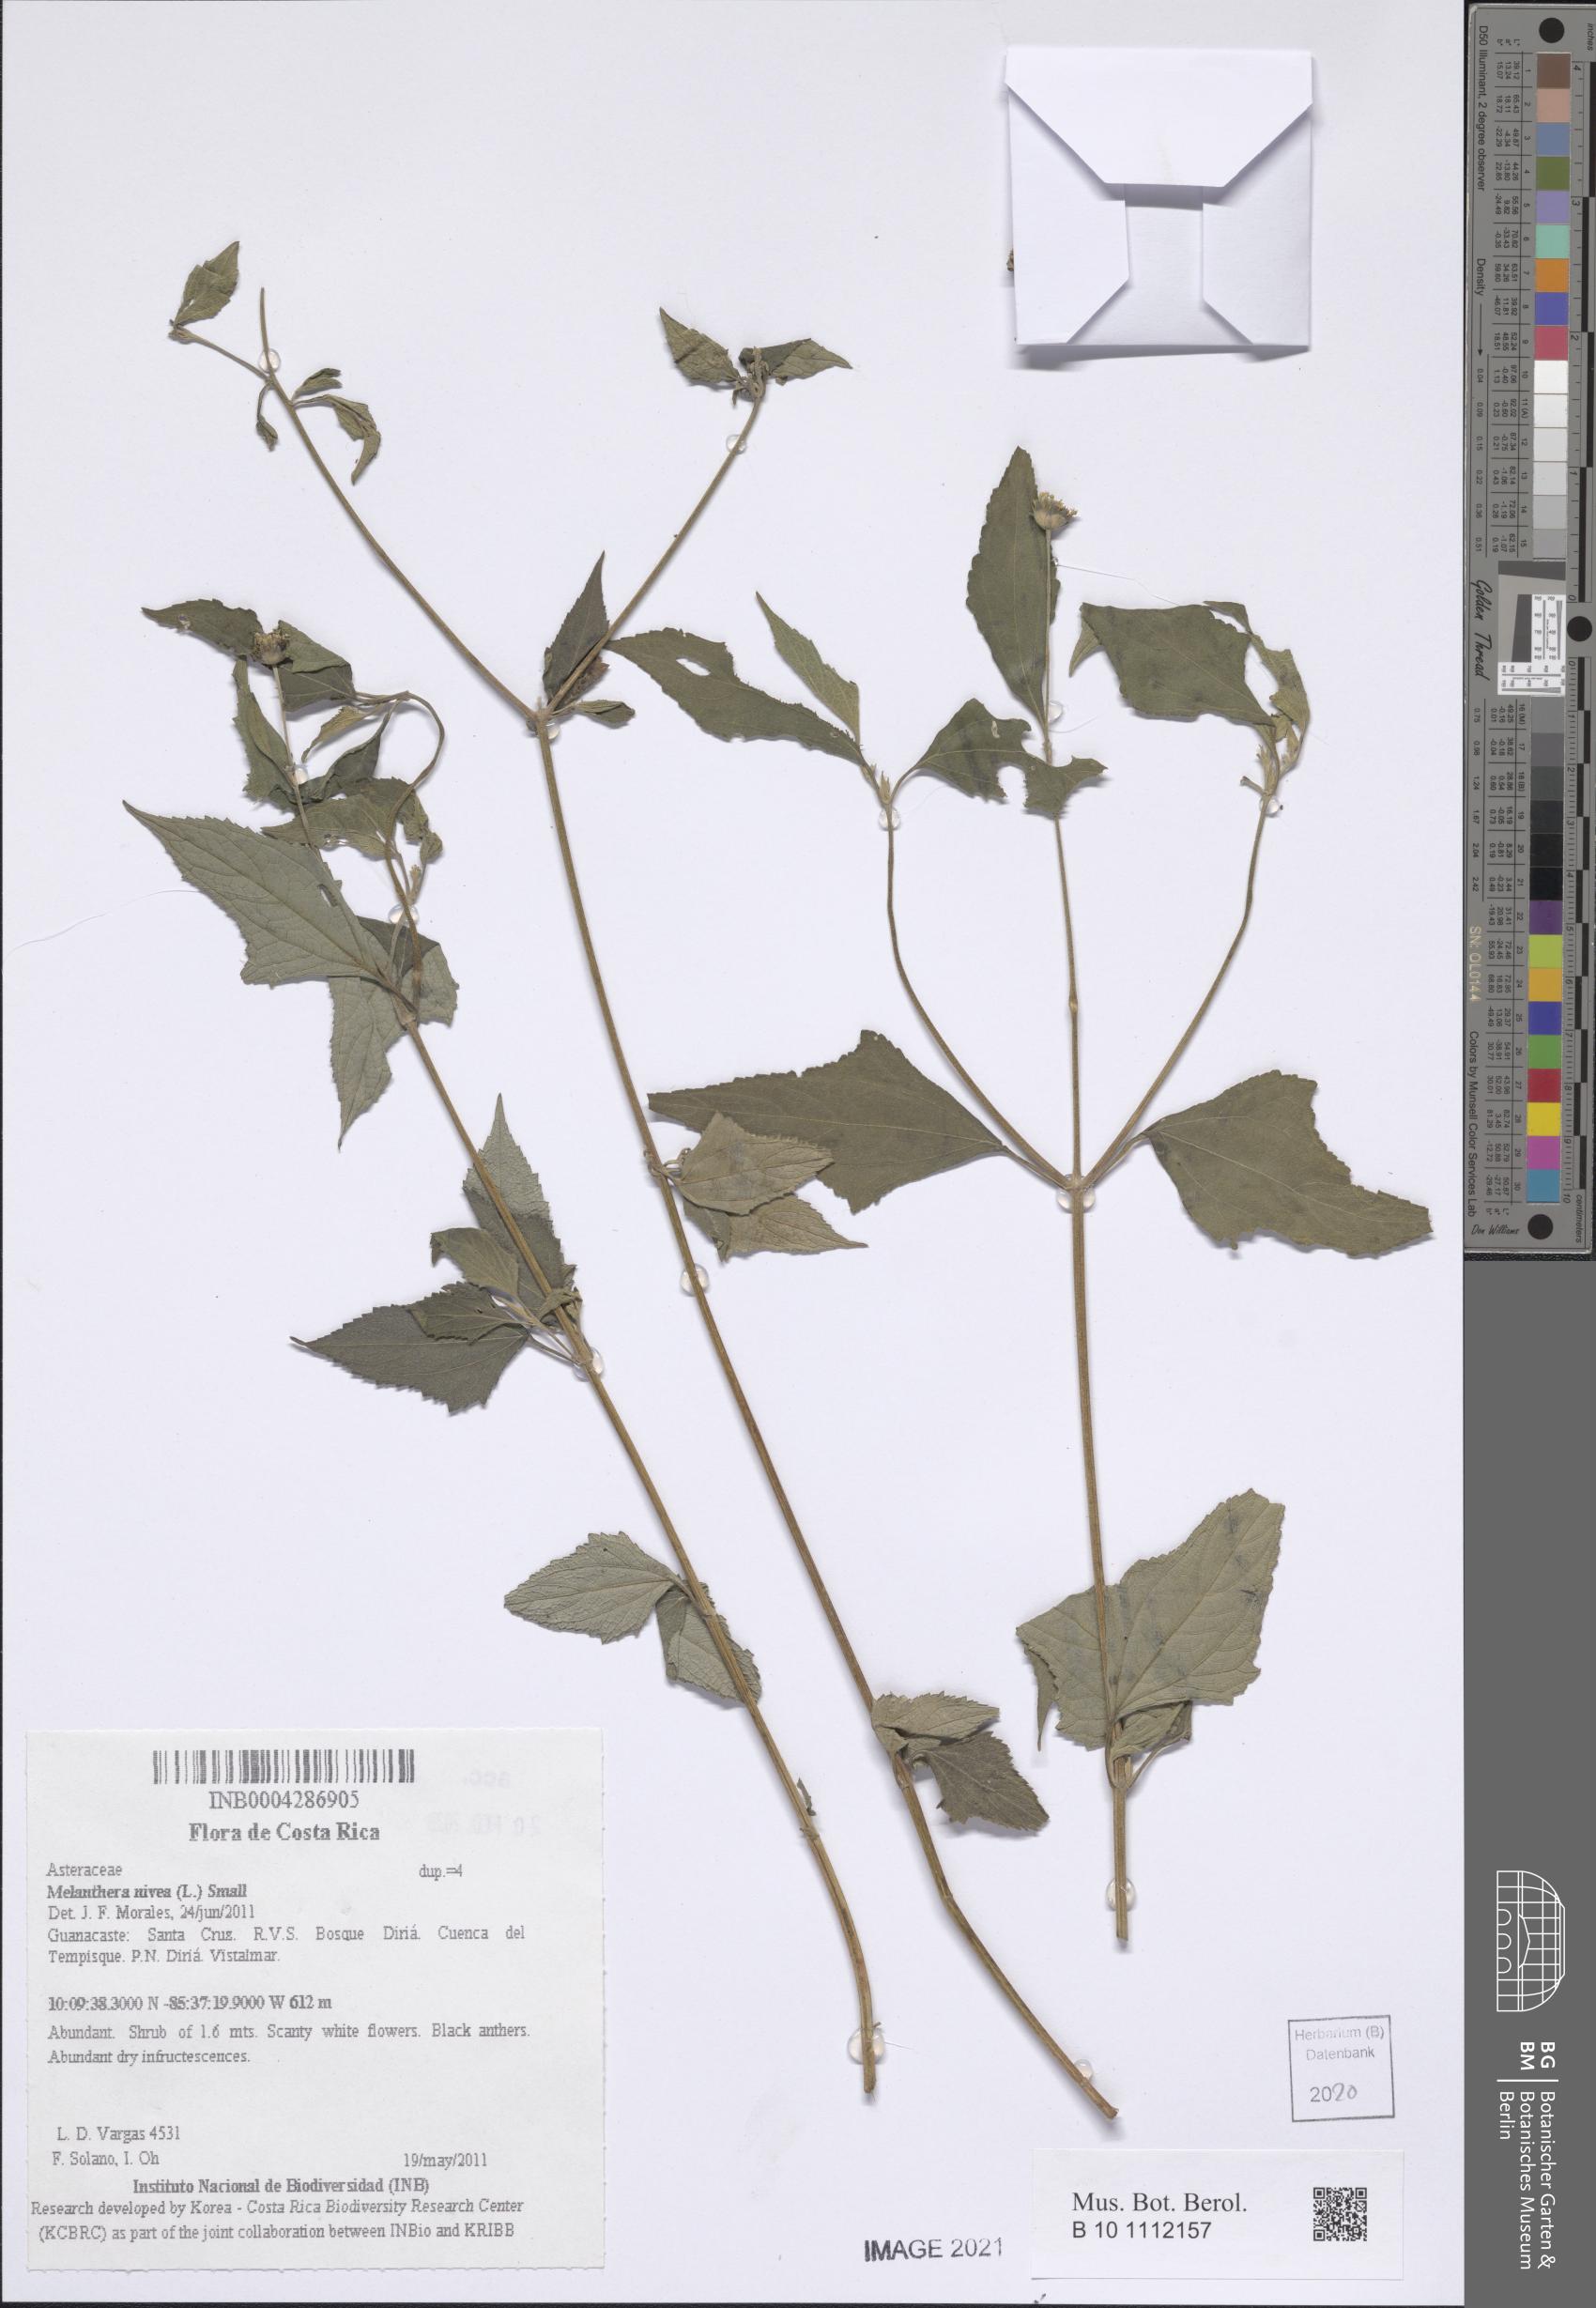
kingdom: Plantae
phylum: Tracheophyta
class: Magnoliopsida
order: Asterales
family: Asteraceae
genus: Melanthera
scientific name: Melanthera nivea
